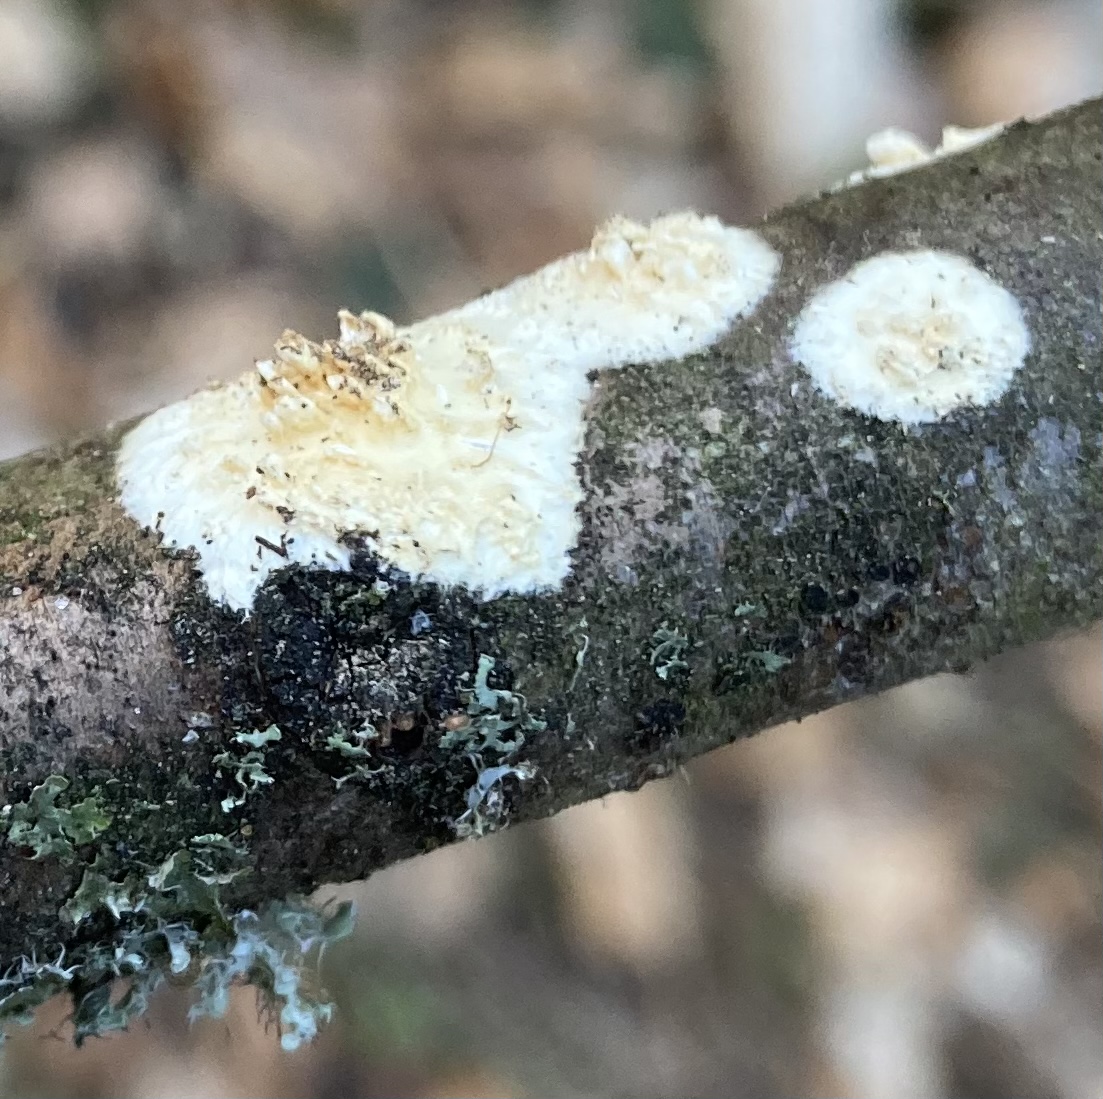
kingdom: Fungi
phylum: Basidiomycota
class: Agaricomycetes
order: Hymenochaetales
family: Schizoporaceae
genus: Xylodon
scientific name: Xylodon radula
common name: grovtandet kalkskind
